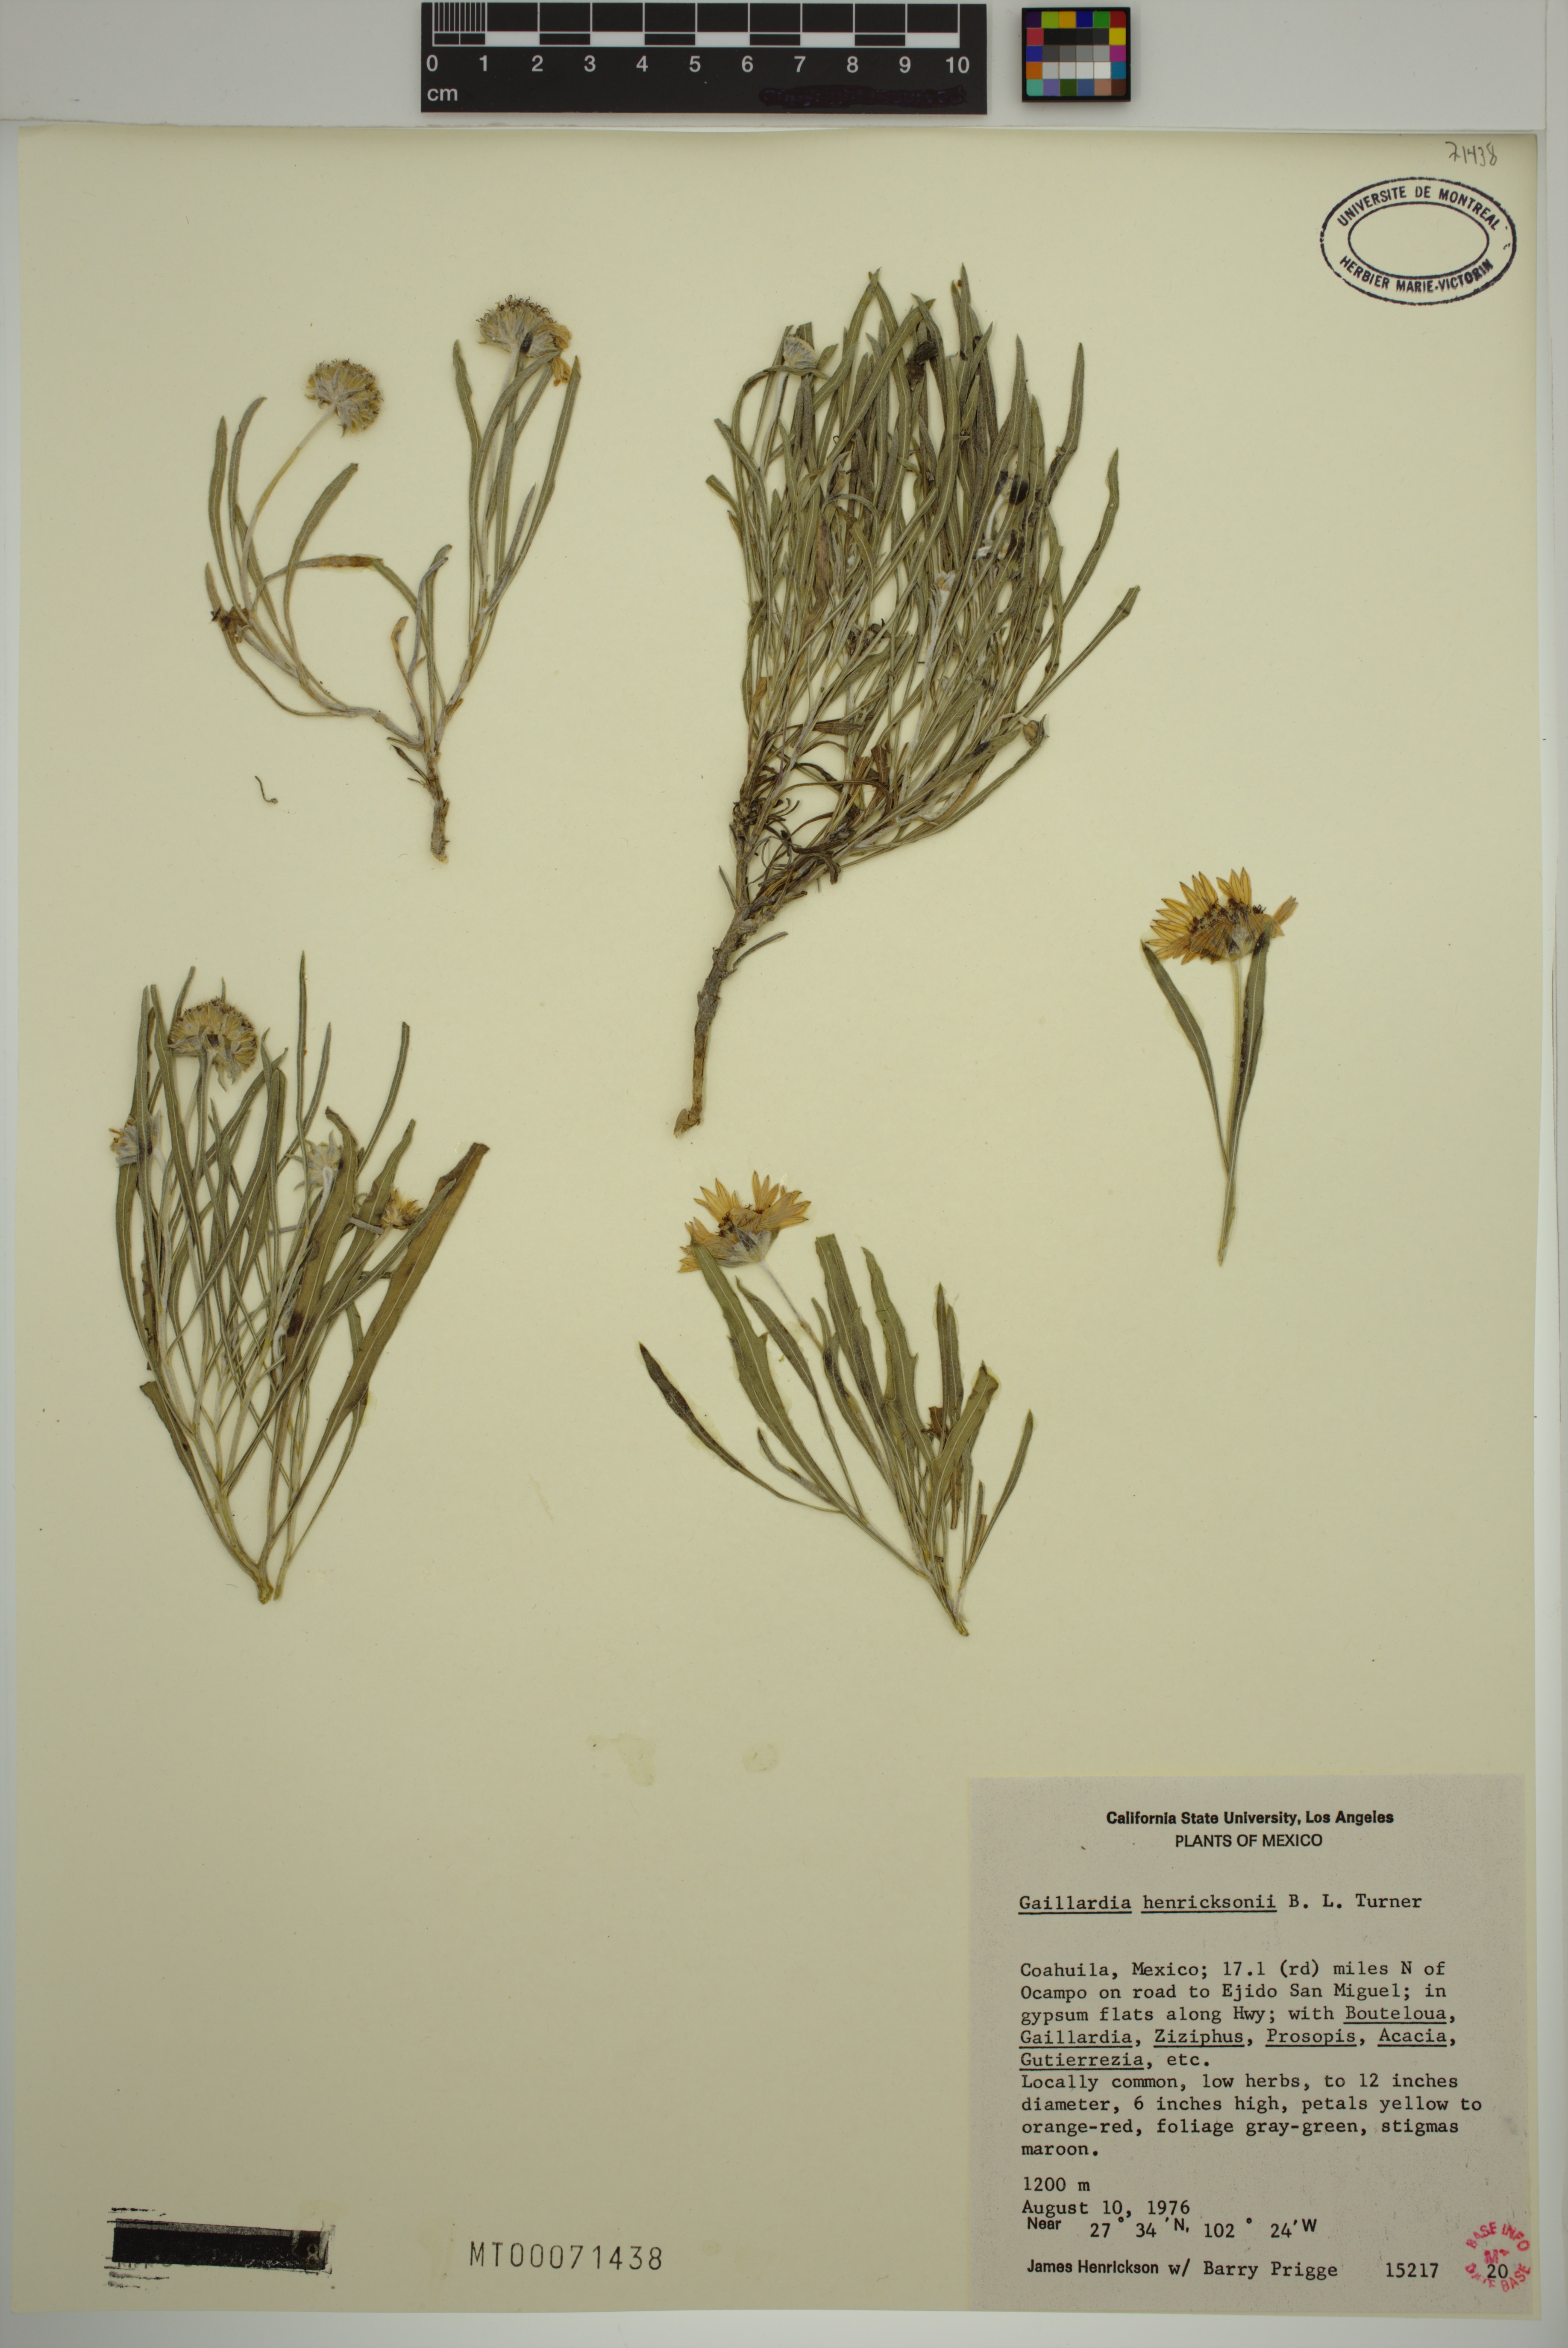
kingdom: Plantae
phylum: Tracheophyta
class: Magnoliopsida
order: Asterales
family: Asteraceae
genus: Gaillardia
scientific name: Gaillardia henricksonii
